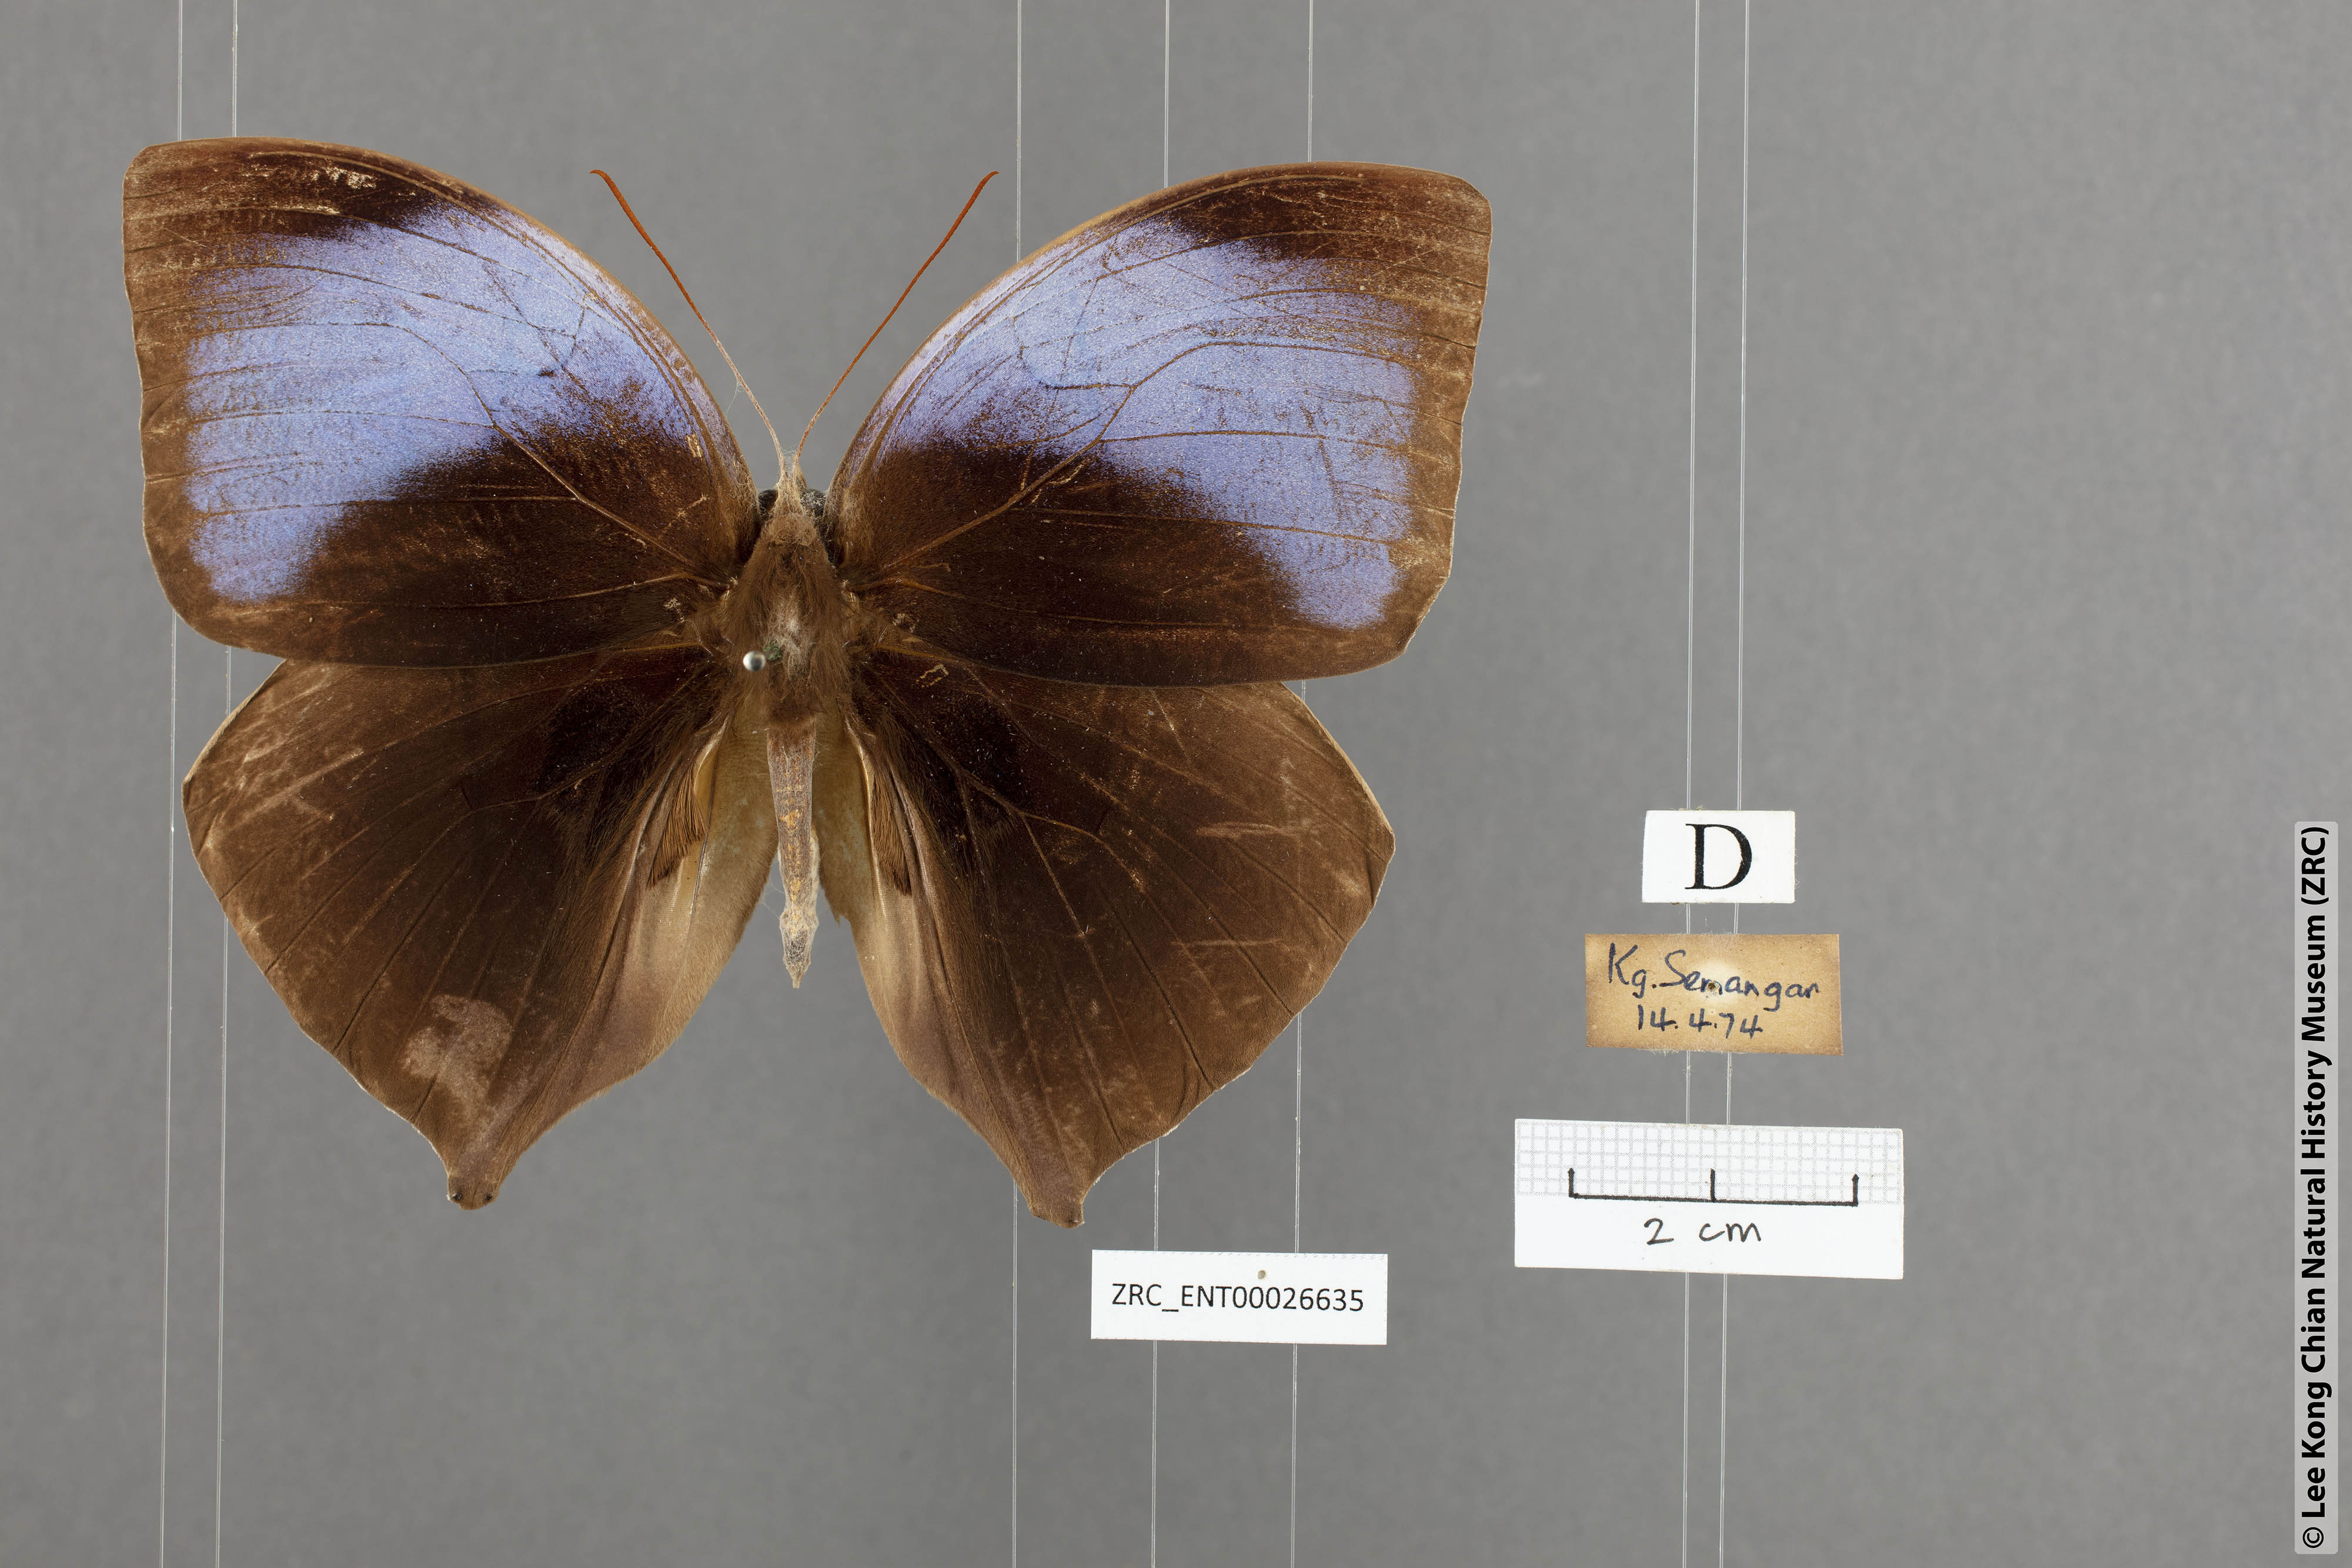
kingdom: Animalia
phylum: Arthropoda
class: Insecta
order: Lepidoptera
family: Nymphalidae
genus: Amathuxidia
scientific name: Amathuxidia amythaon
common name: Koh-i-noor
